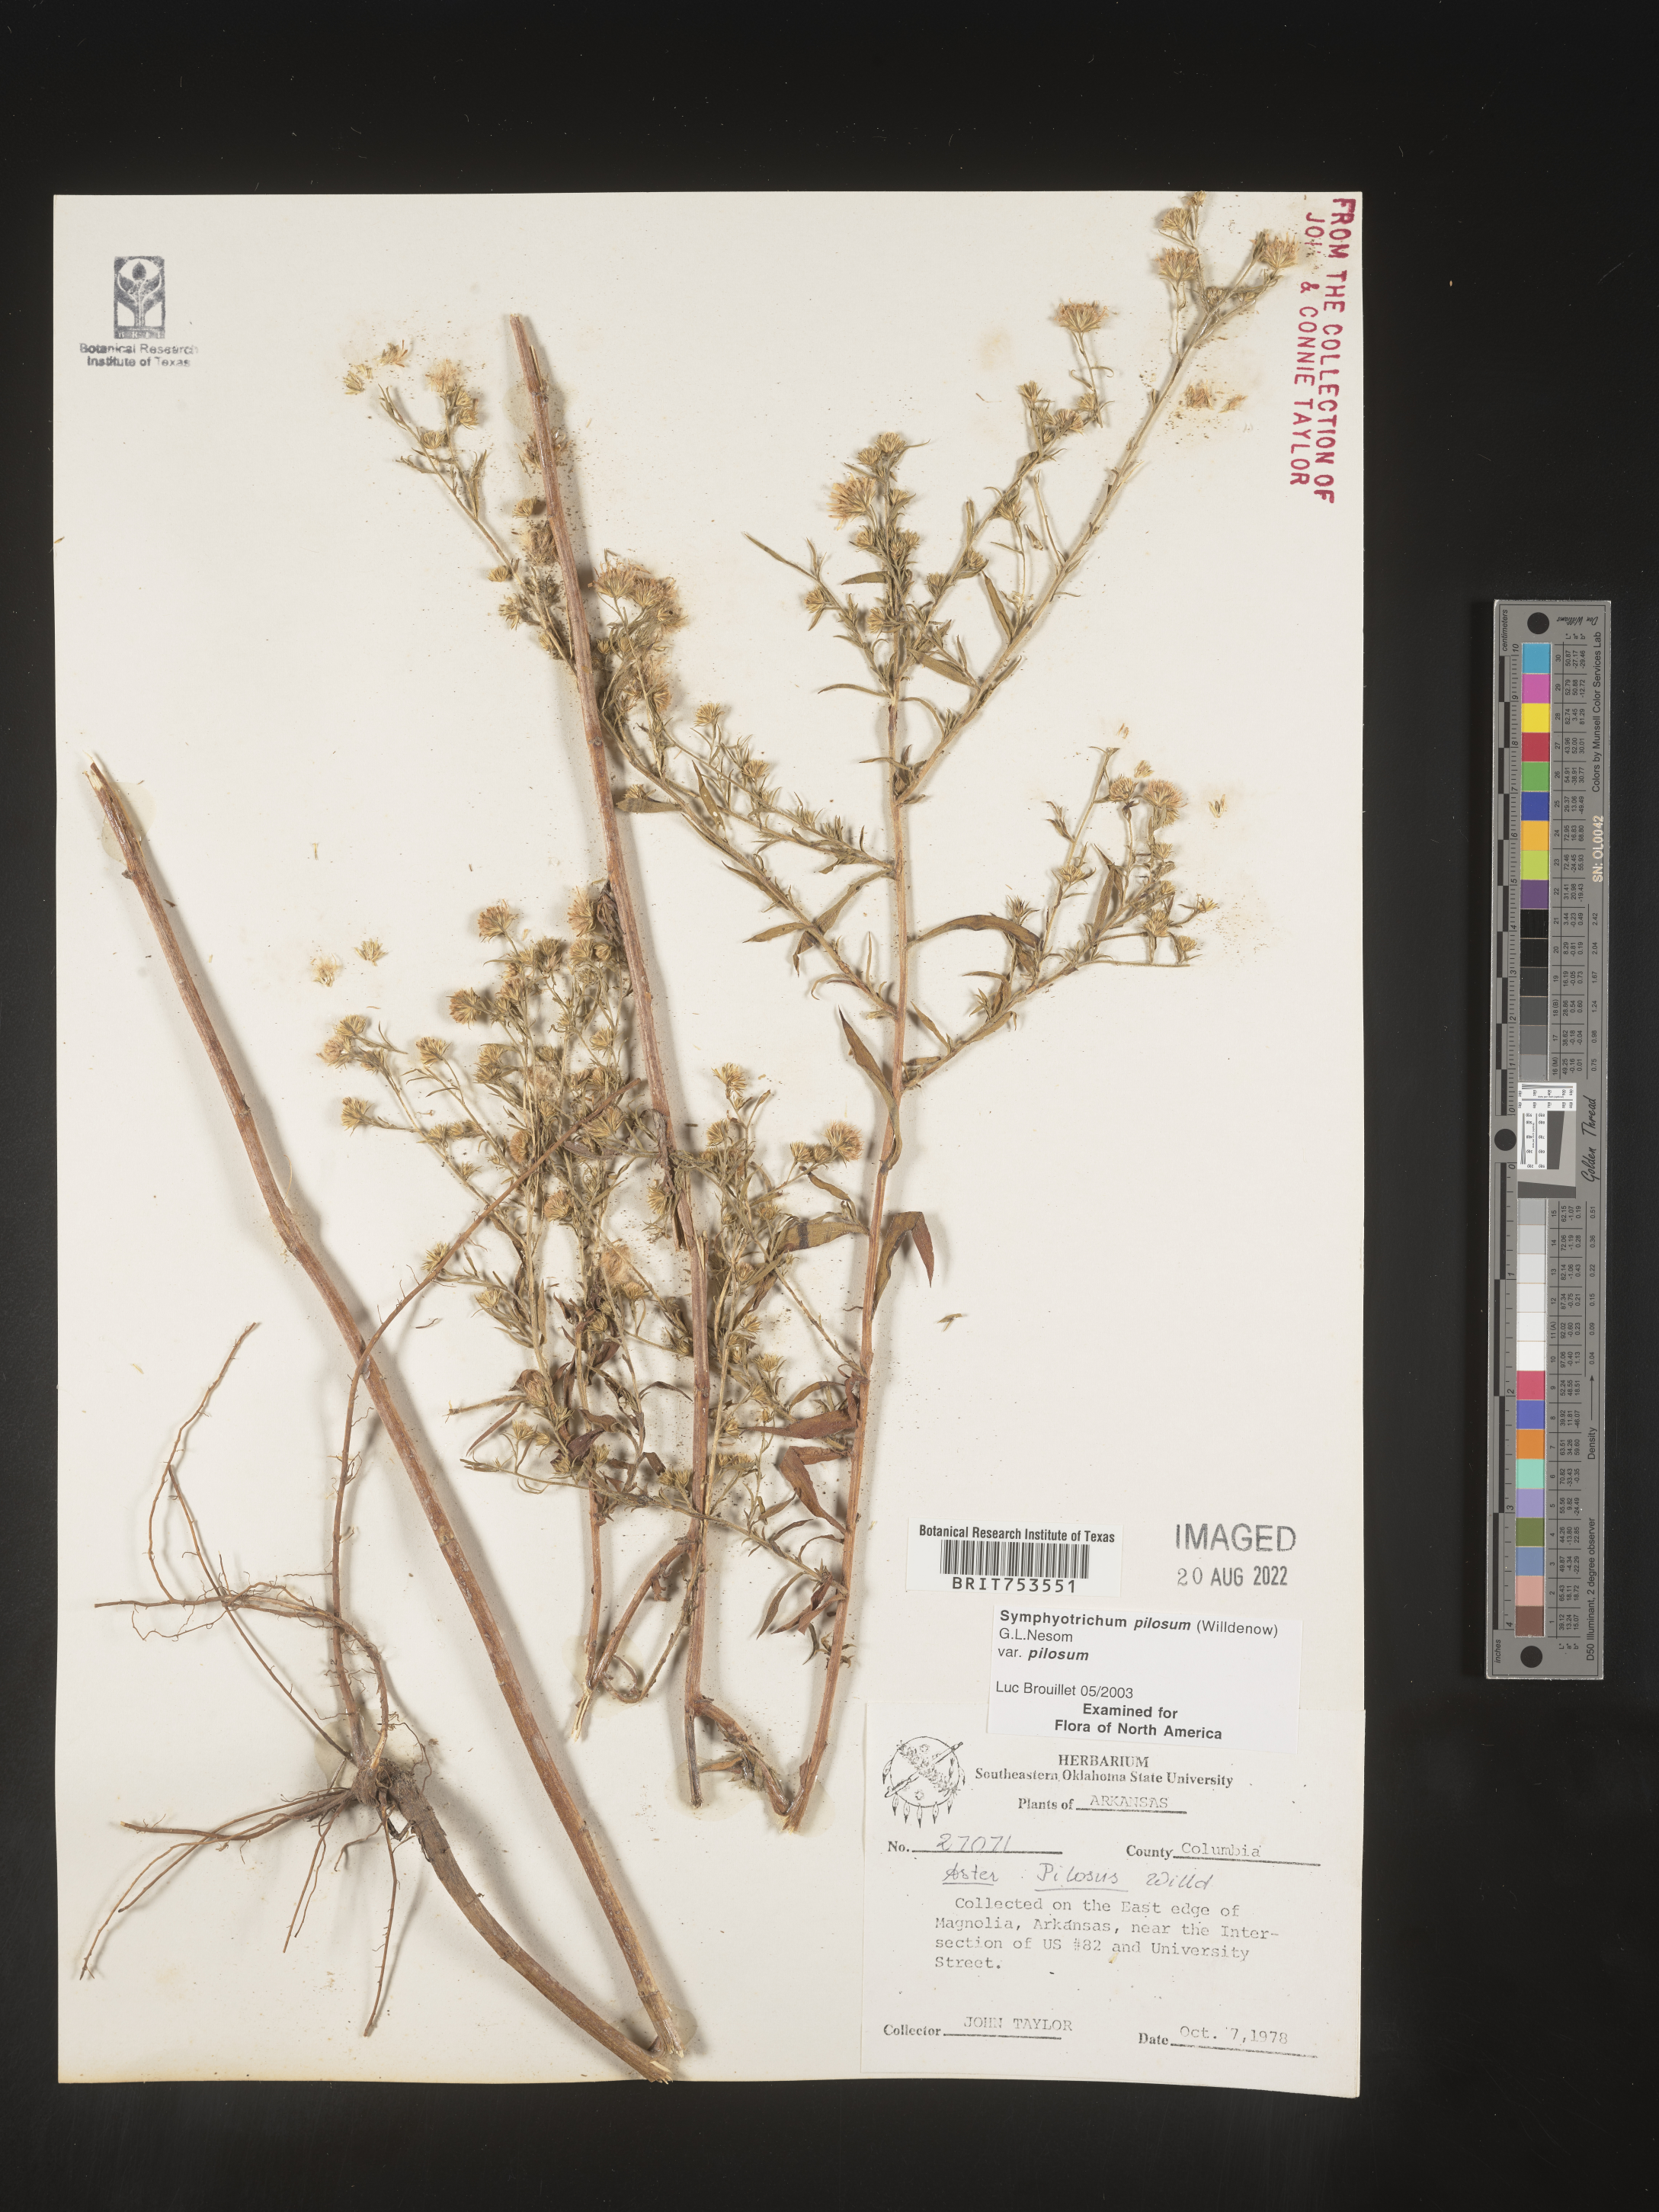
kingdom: Plantae
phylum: Tracheophyta
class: Magnoliopsida
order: Asterales
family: Asteraceae
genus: Symphyotrichum
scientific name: Symphyotrichum pilosum
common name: Awl aster
